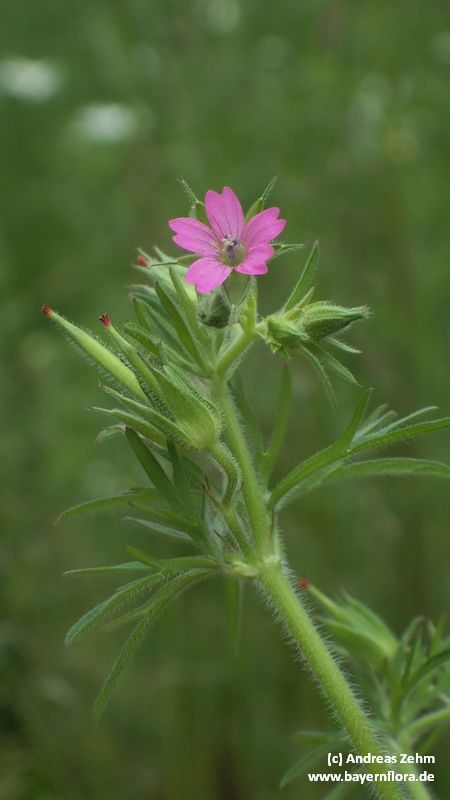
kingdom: Plantae
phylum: Tracheophyta
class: Magnoliopsida
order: Geraniales
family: Geraniaceae
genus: Geranium
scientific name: Geranium dissectum
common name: Cut-leaved crane's-bill
